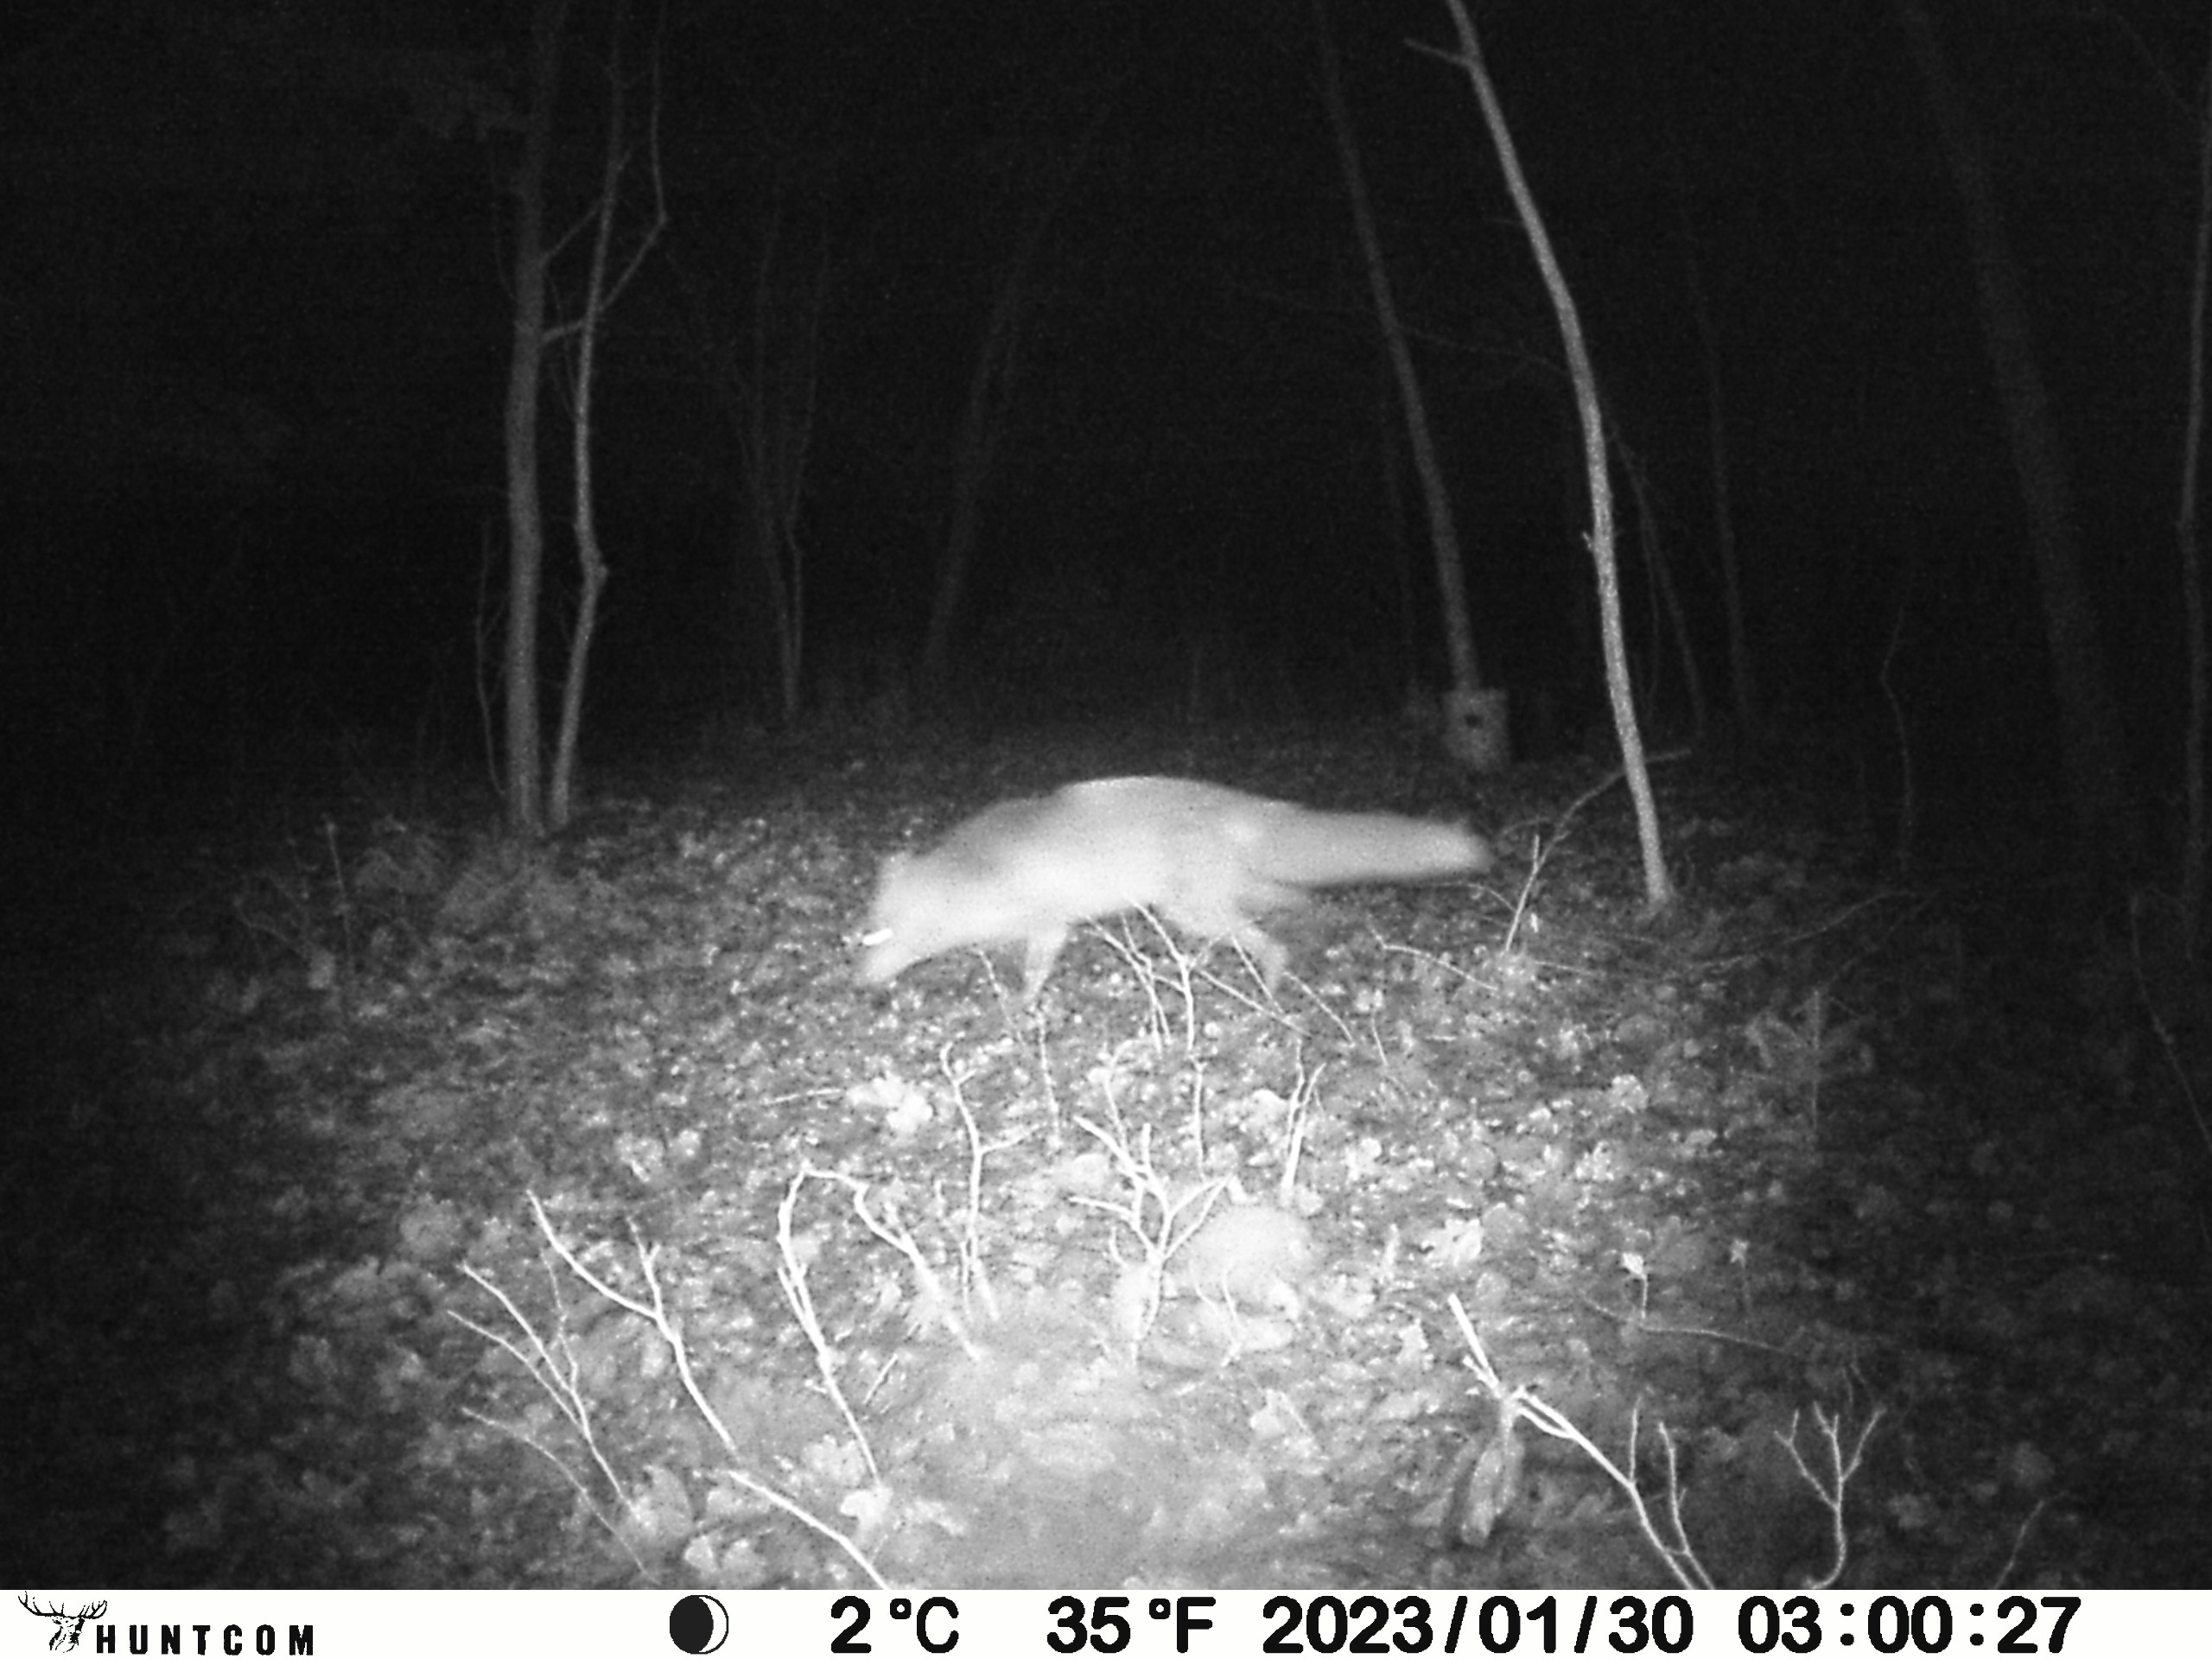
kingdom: Animalia
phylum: Chordata
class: Mammalia
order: Carnivora
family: Canidae
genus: Vulpes
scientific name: Vulpes vulpes
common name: Ræv
